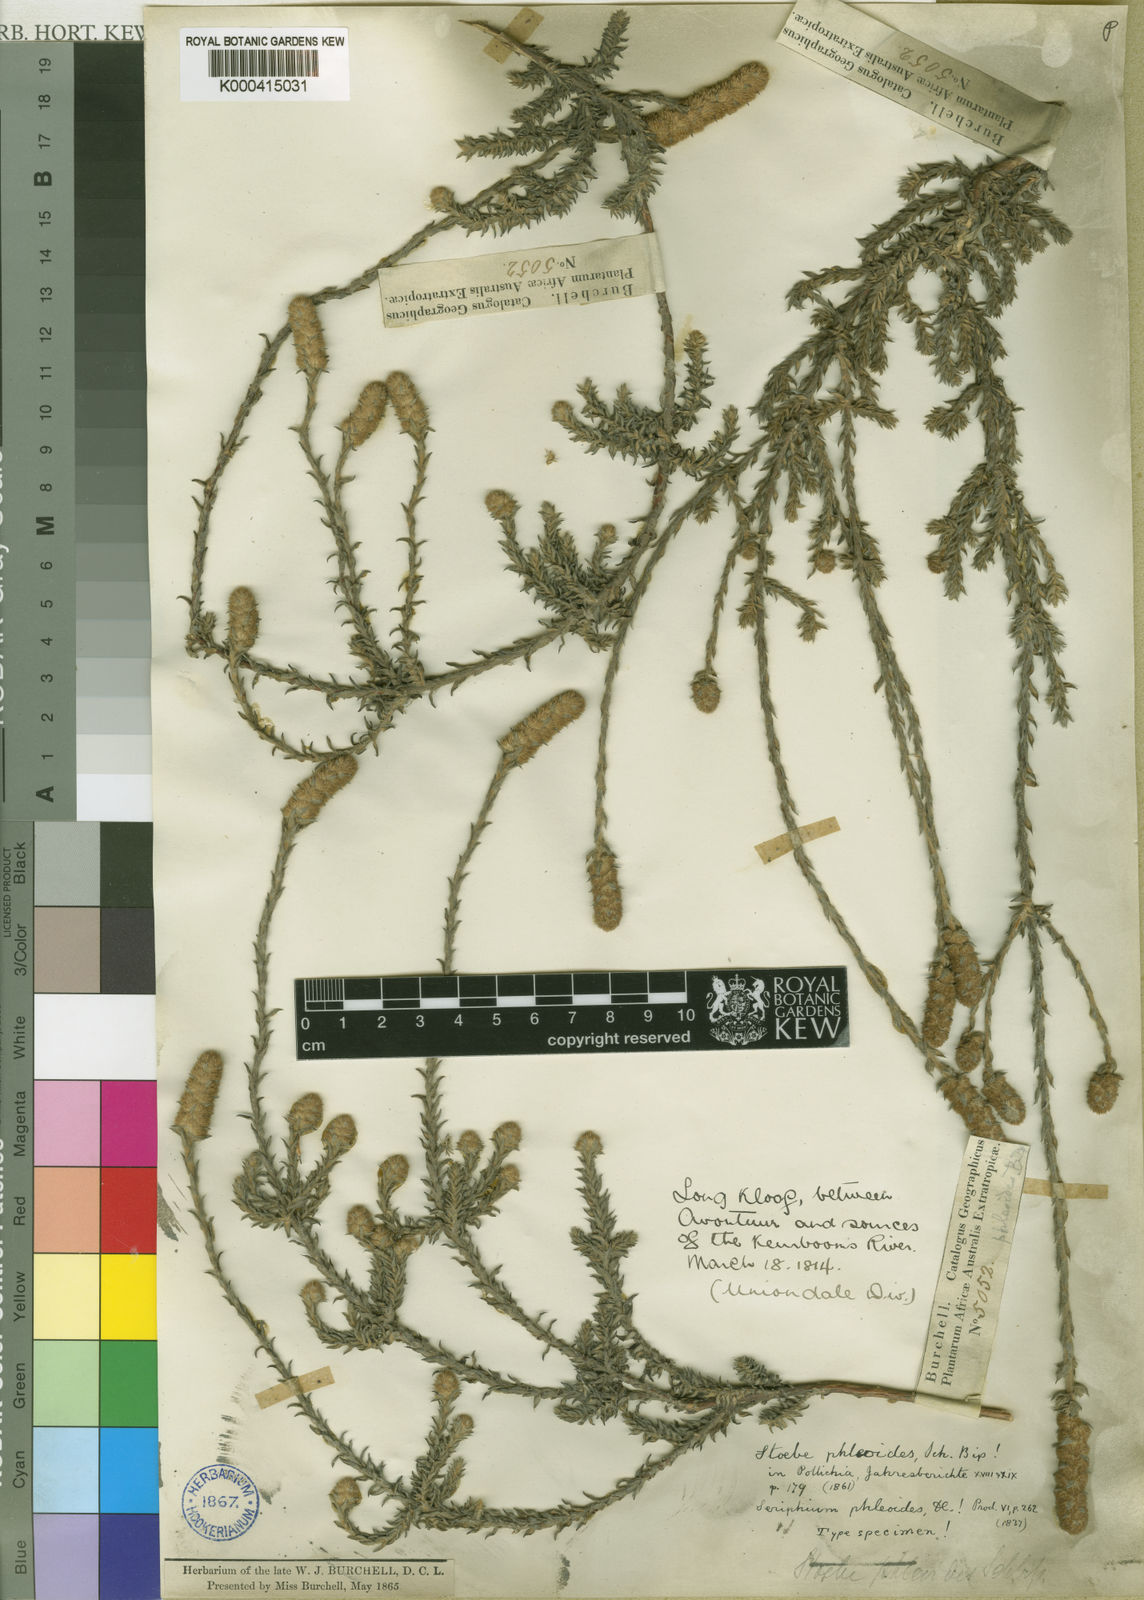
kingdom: Plantae
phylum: Tracheophyta
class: Magnoliopsida
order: Asterales
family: Asteraceae
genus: Stoebe
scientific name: Stoebe phyllostachya
